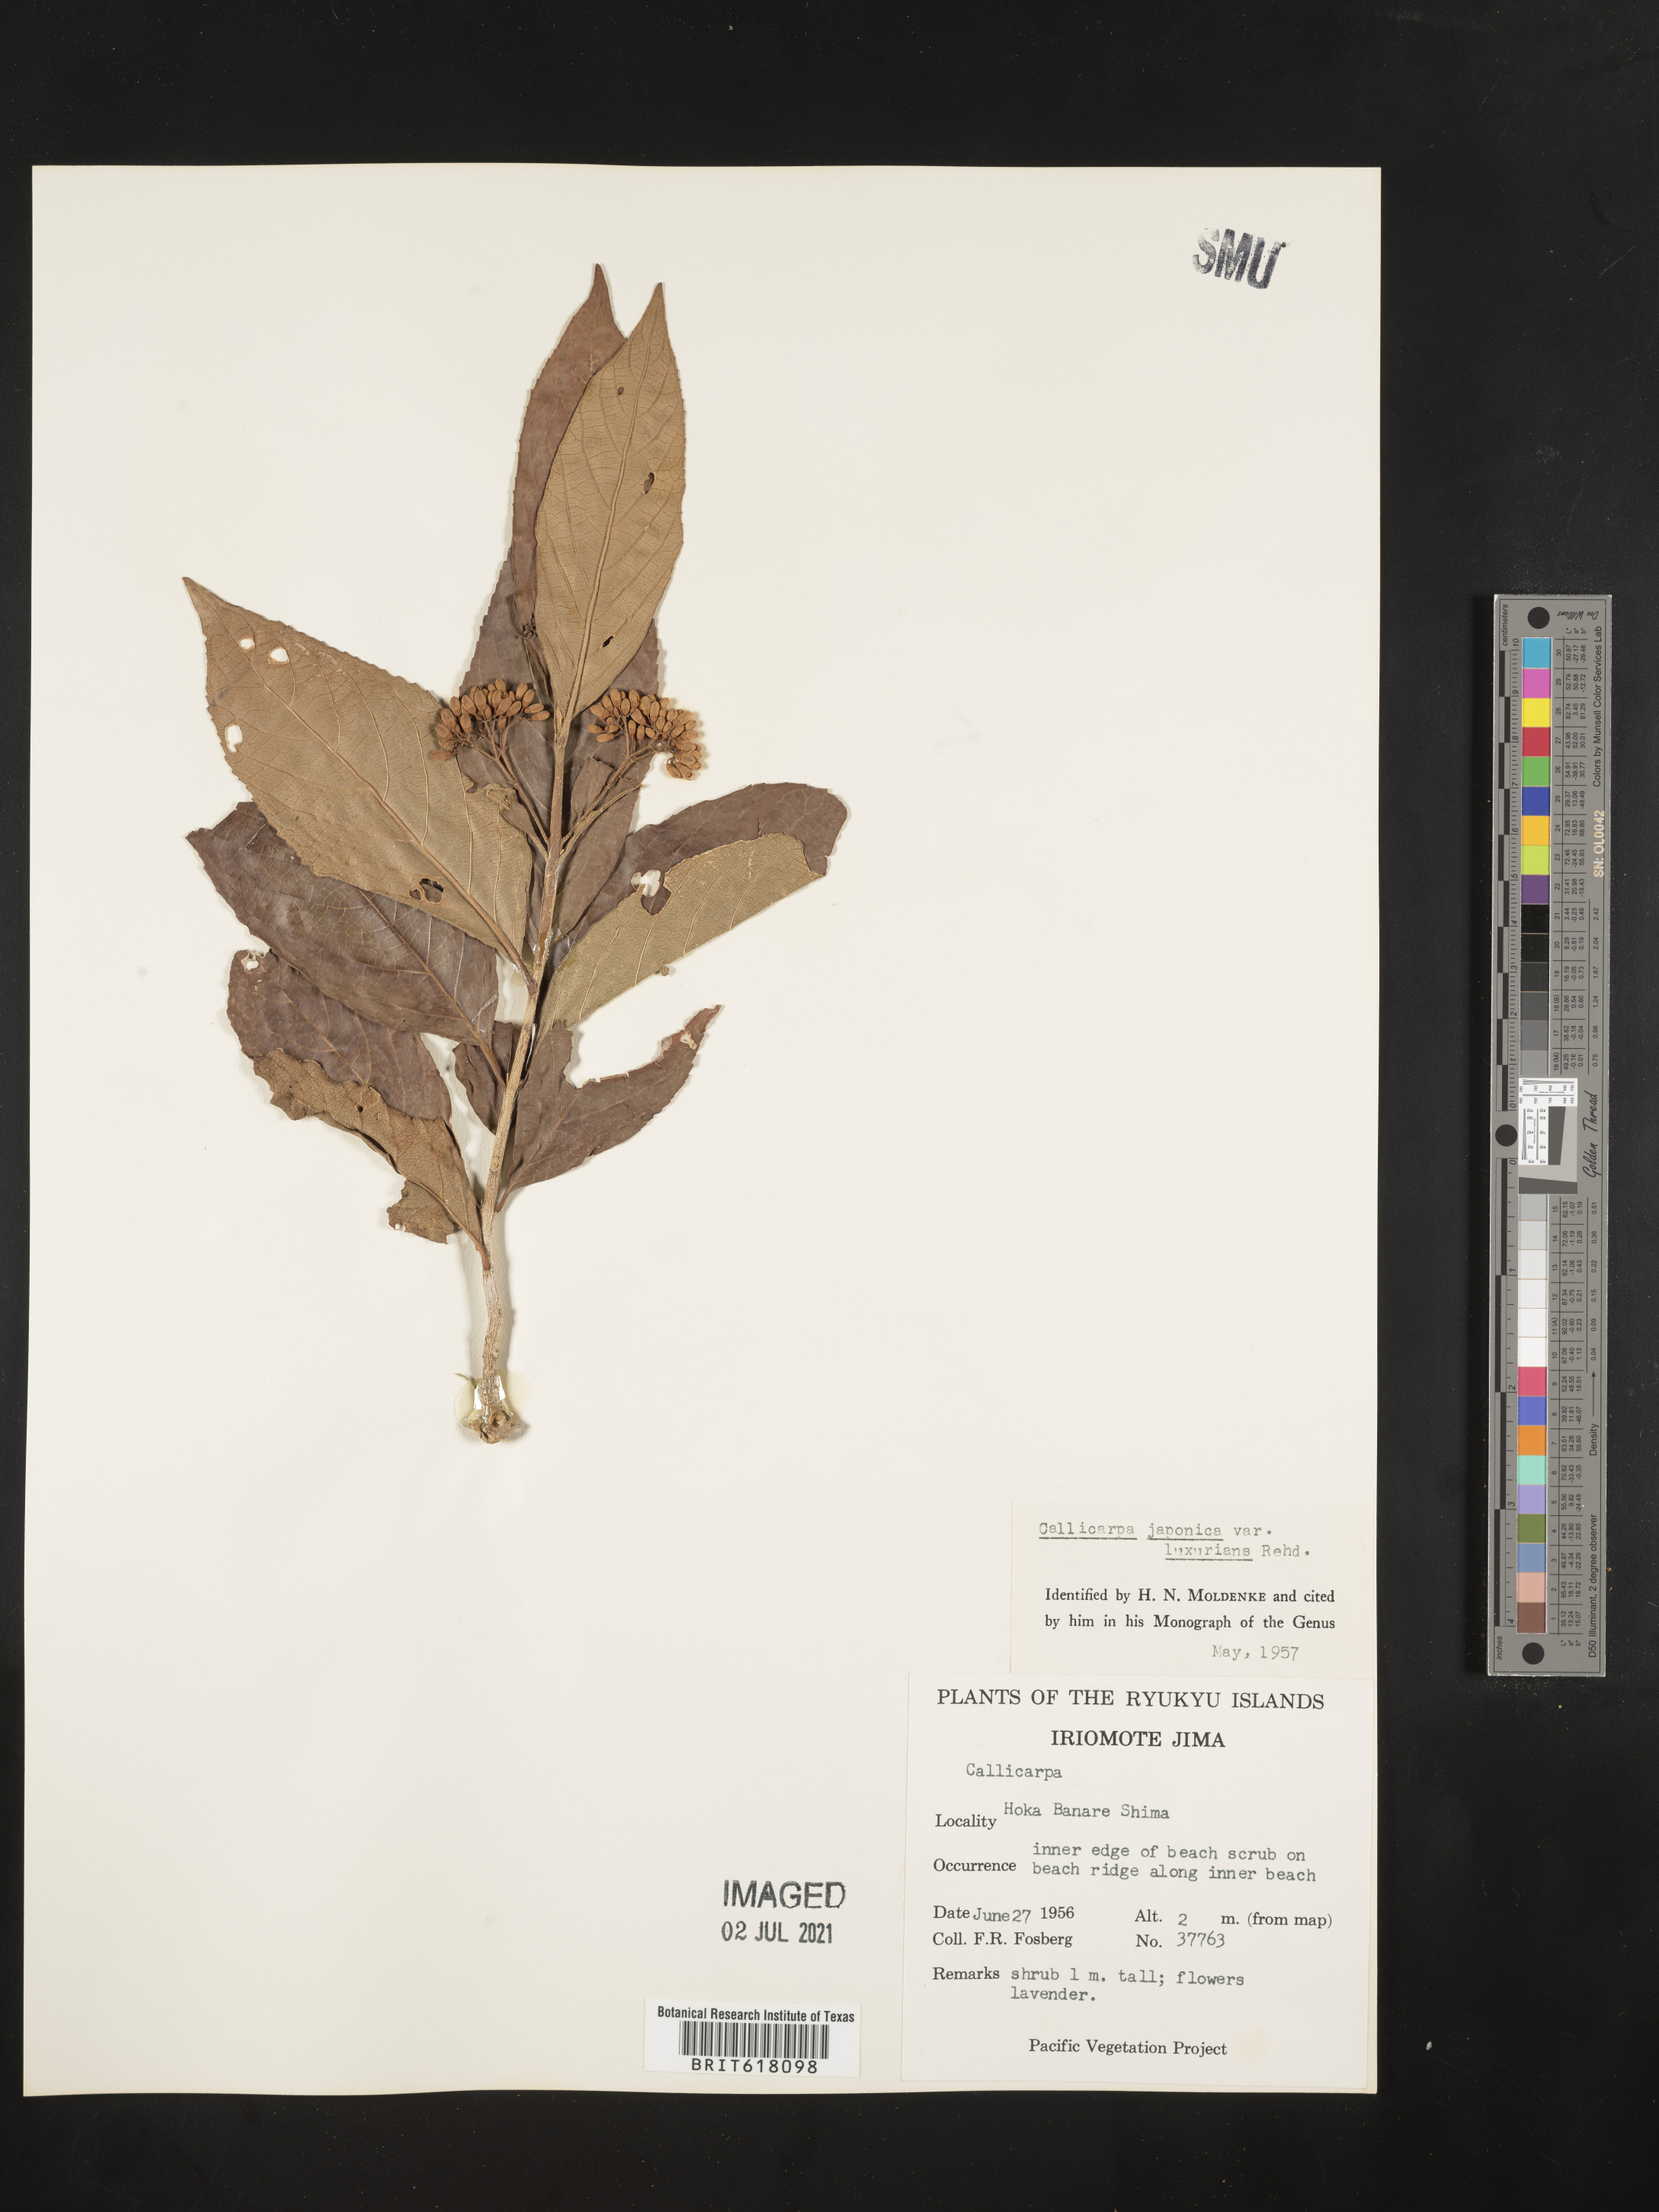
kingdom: Plantae
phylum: Tracheophyta
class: Magnoliopsida
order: Lamiales
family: Lamiaceae
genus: Callicarpa
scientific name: Callicarpa japonica
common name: Japanese beauty-berry
